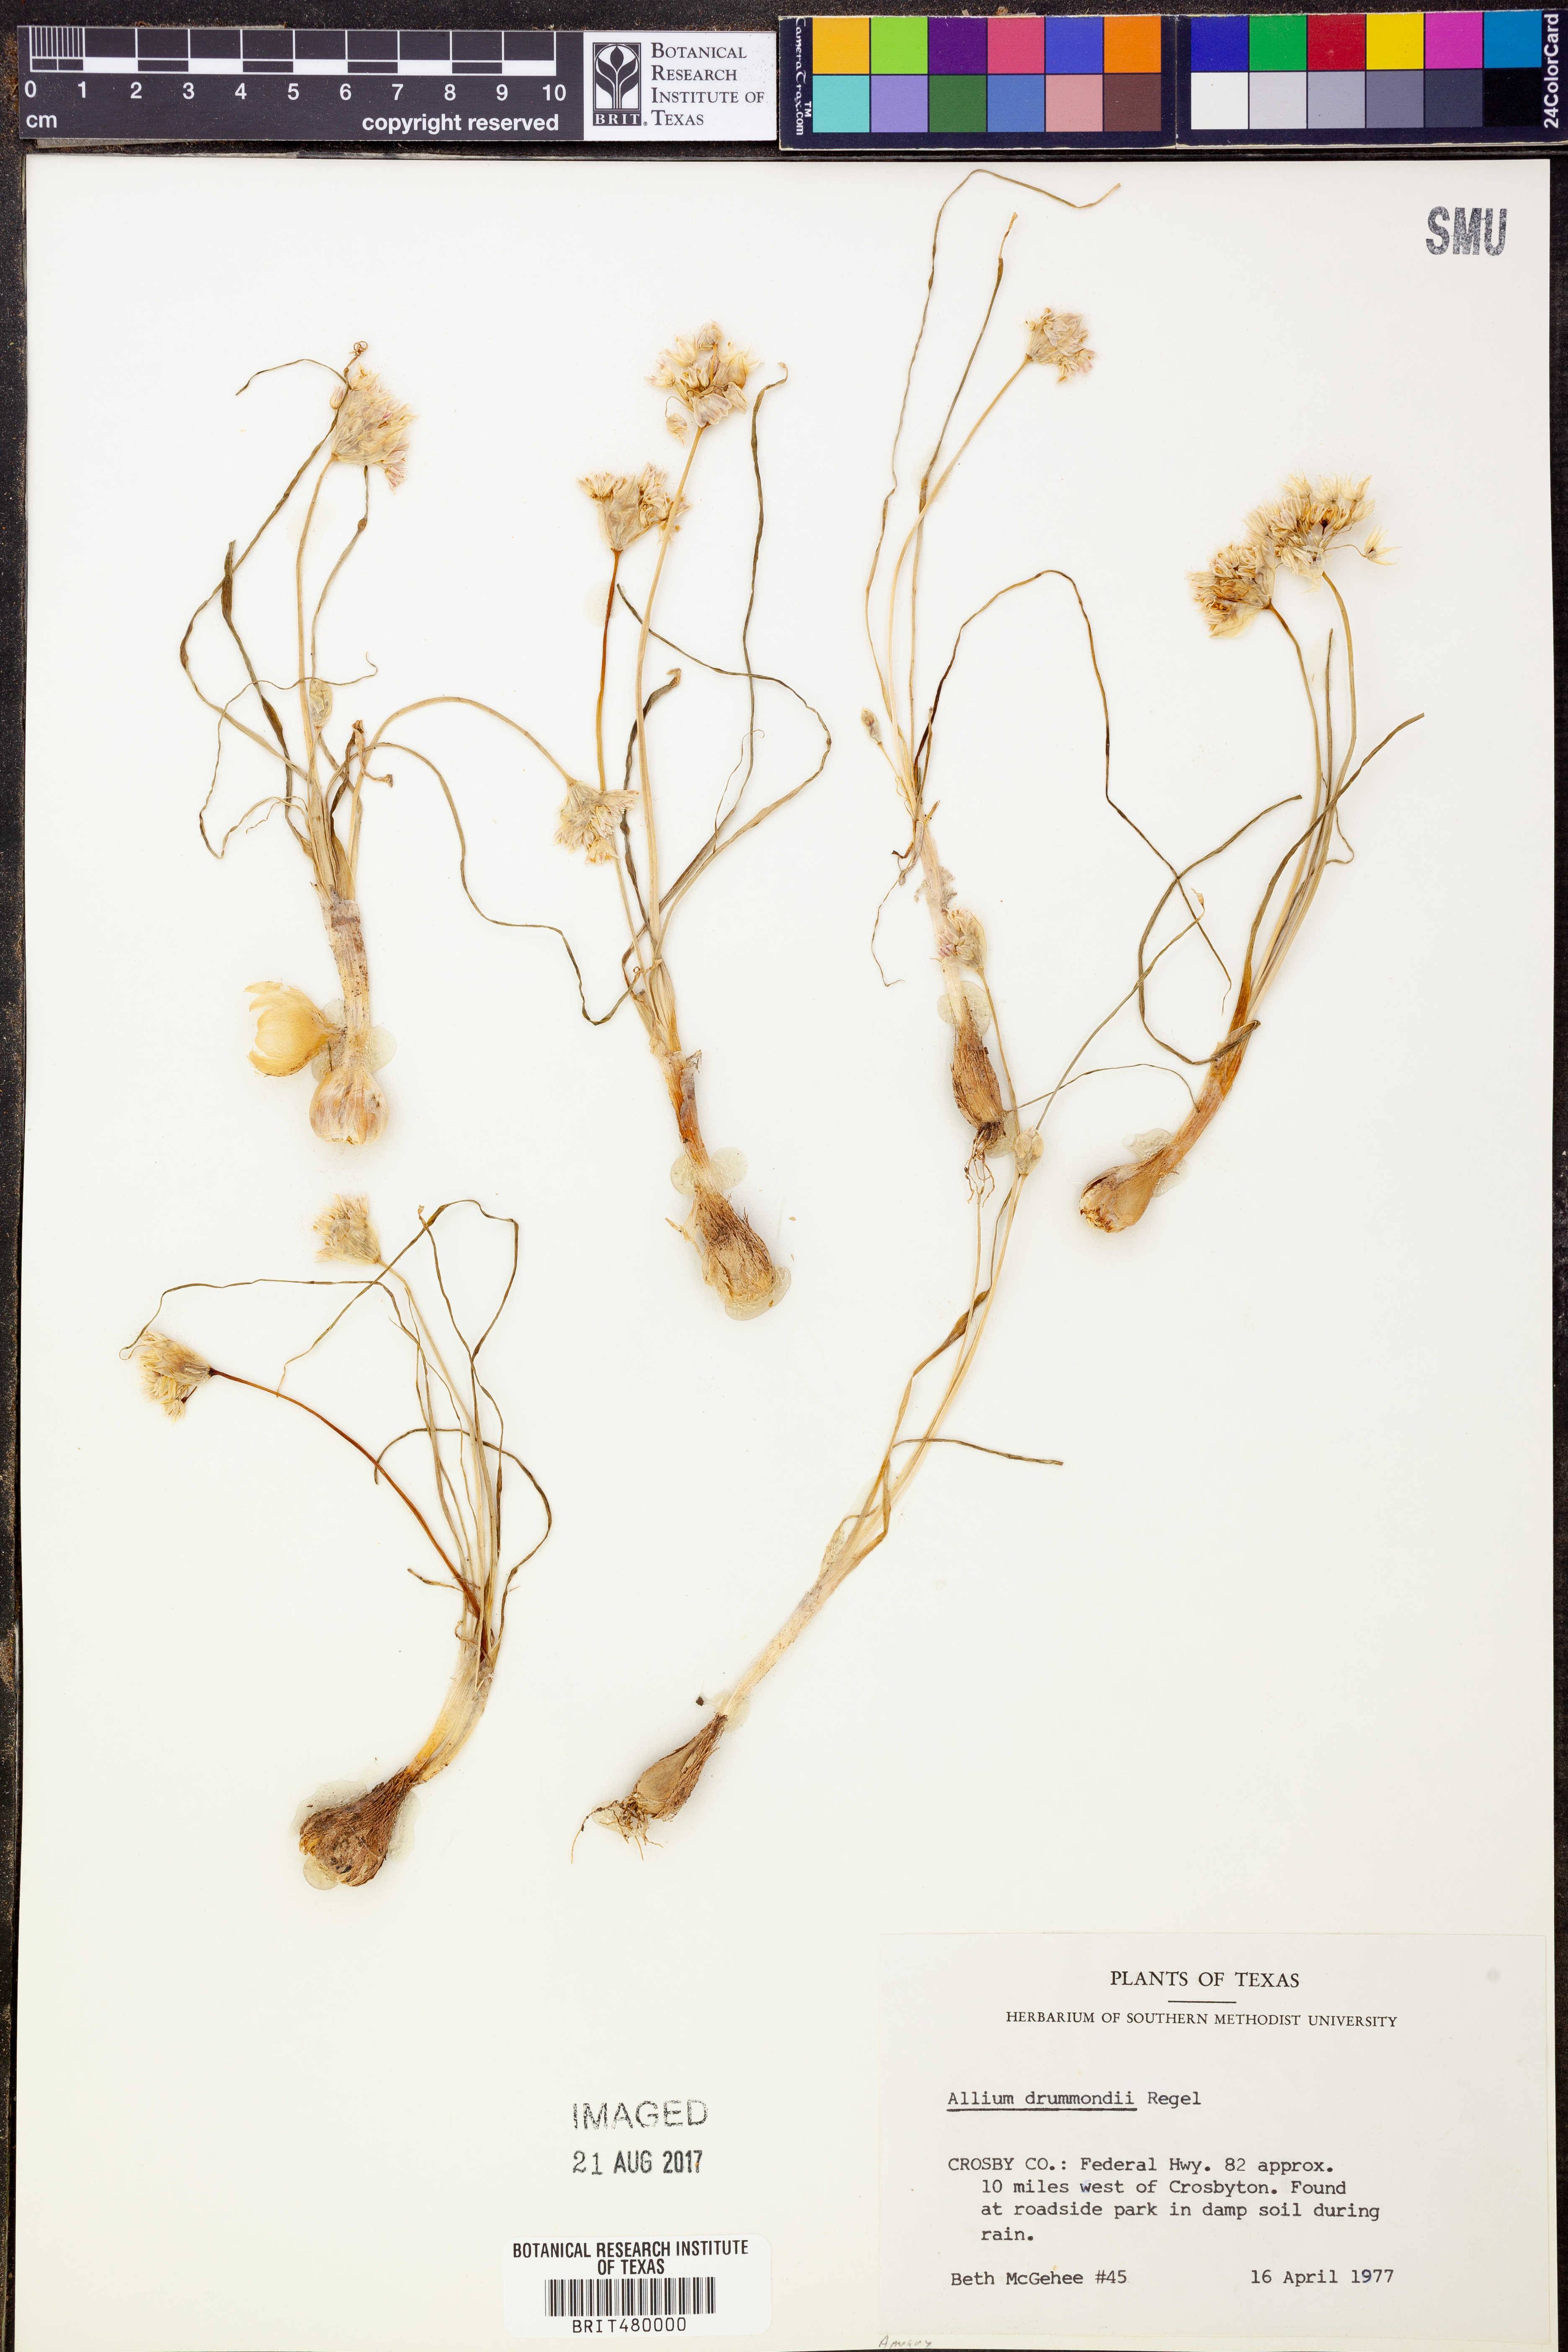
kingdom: Plantae
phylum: Tracheophyta
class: Liliopsida
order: Asparagales
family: Amaryllidaceae
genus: Allium
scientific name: Allium drummondii
